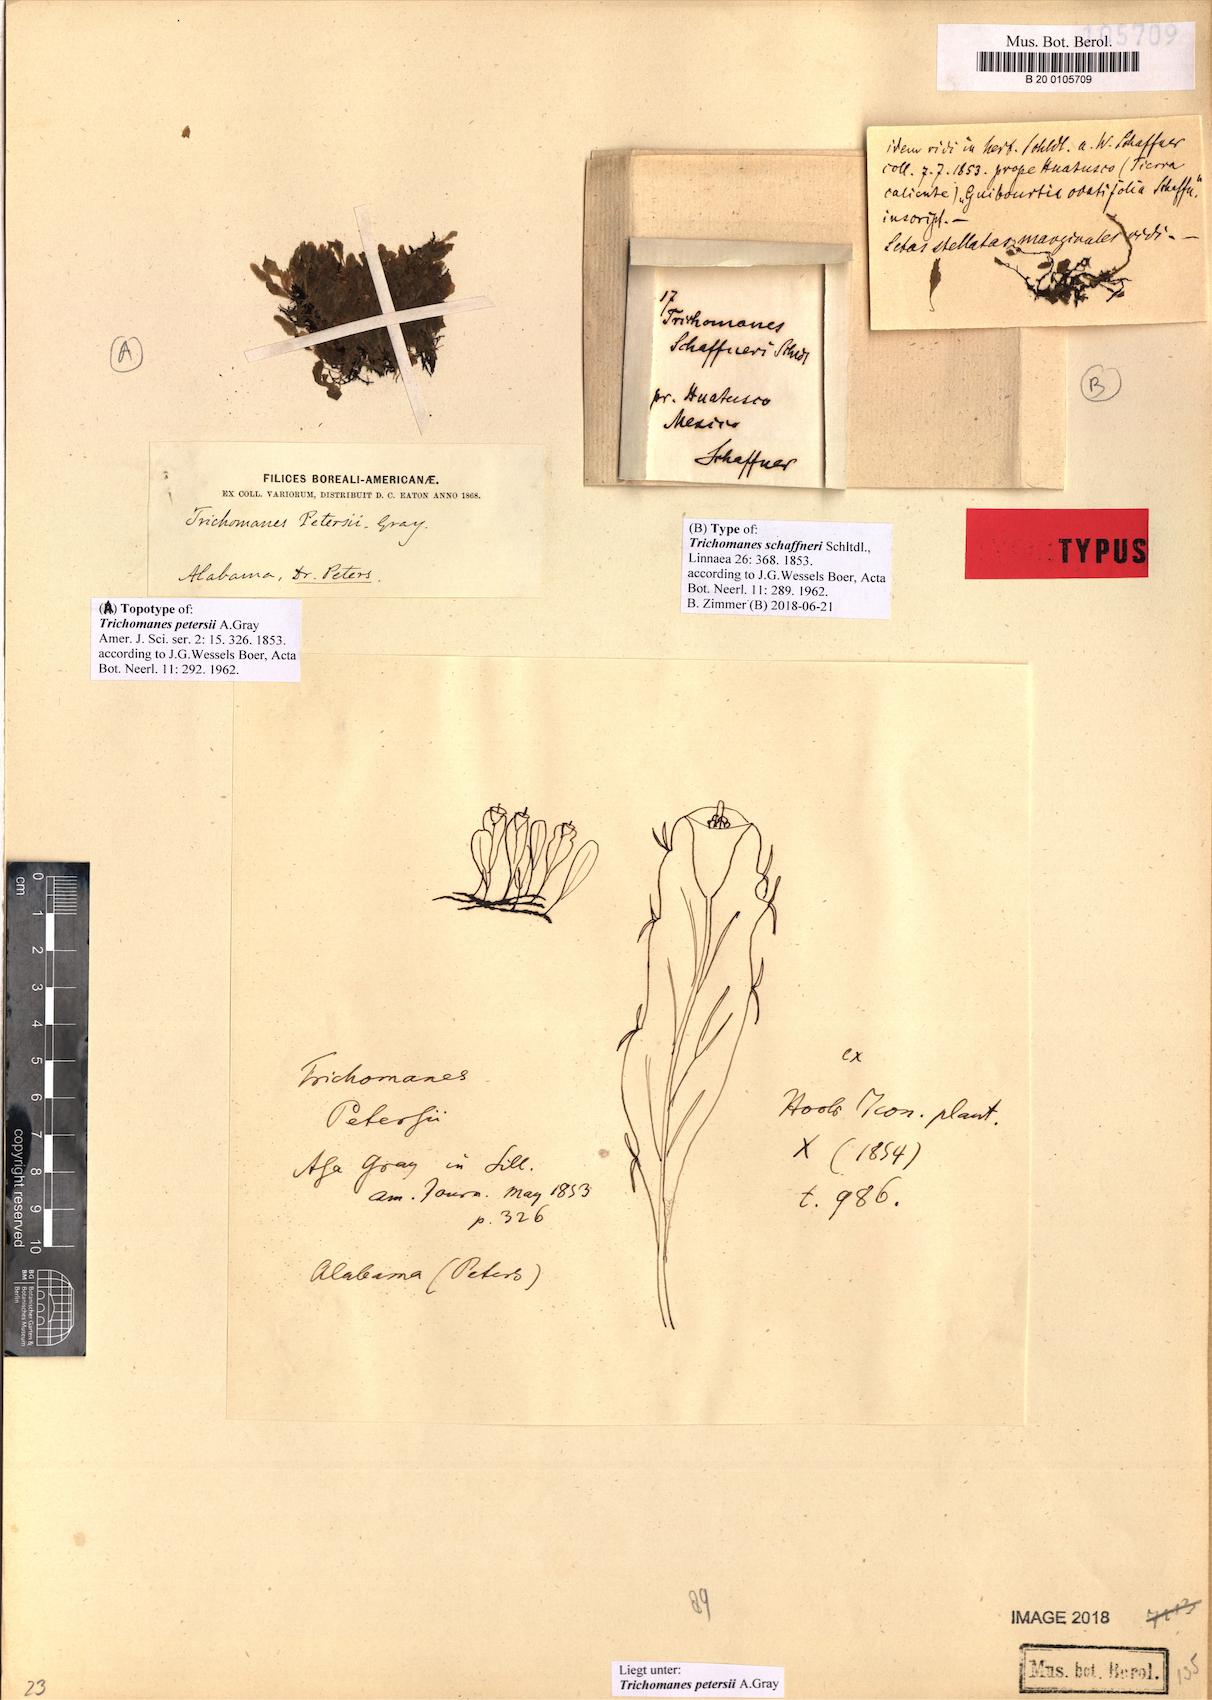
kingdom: Plantae
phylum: Tracheophyta
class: Polypodiopsida
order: Hymenophyllales
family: Hymenophyllaceae
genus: Didymoglossum
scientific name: Didymoglossum petersii
